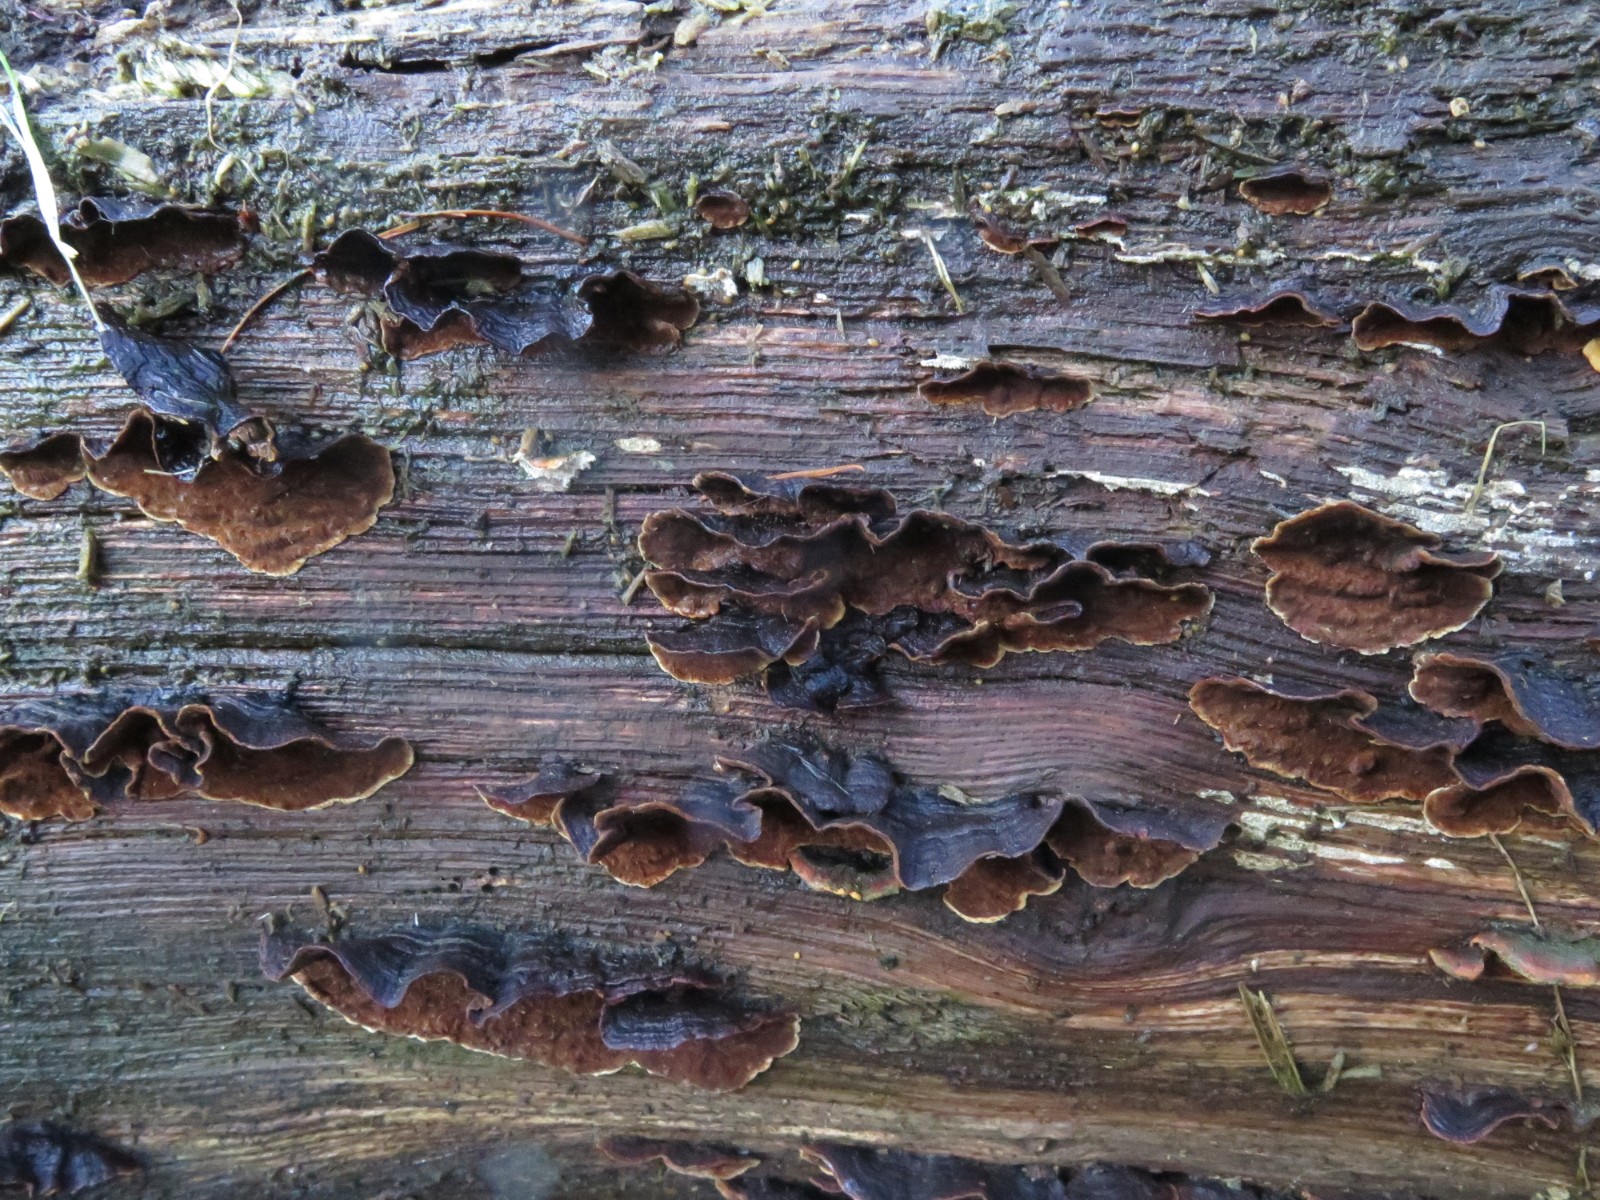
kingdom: Fungi
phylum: Basidiomycota
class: Agaricomycetes
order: Hymenochaetales
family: Hymenochaetaceae
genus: Hymenochaete
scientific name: Hymenochaete rubiginosa
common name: stiv ruslædersvamp
